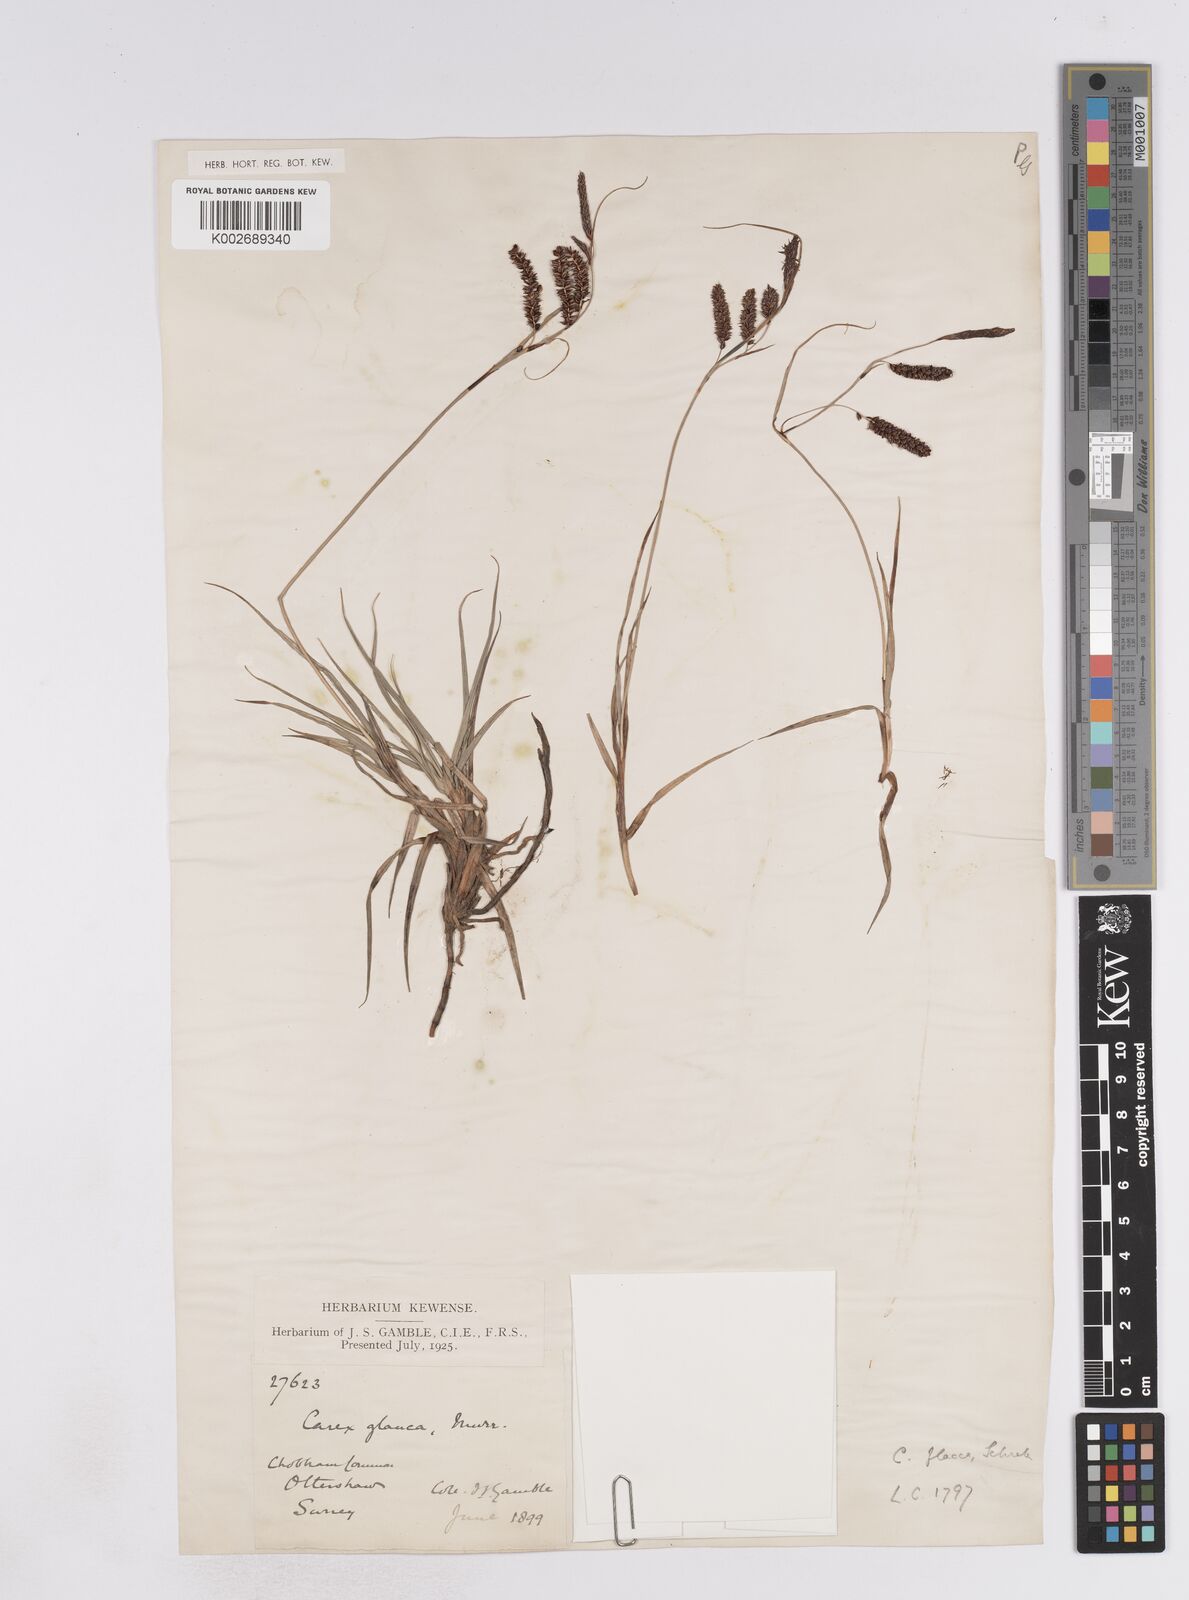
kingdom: Plantae
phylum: Tracheophyta
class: Liliopsida
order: Poales
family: Cyperaceae
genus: Carex
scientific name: Carex flacca
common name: Glaucous sedge
